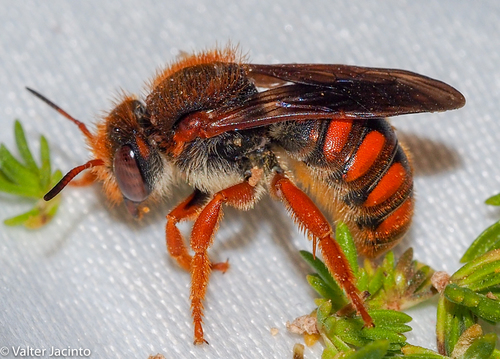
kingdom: Animalia
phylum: Arthropoda
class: Insecta
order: Hymenoptera
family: Megachilidae
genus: Rhodanthidium
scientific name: Rhodanthidium sticticum
